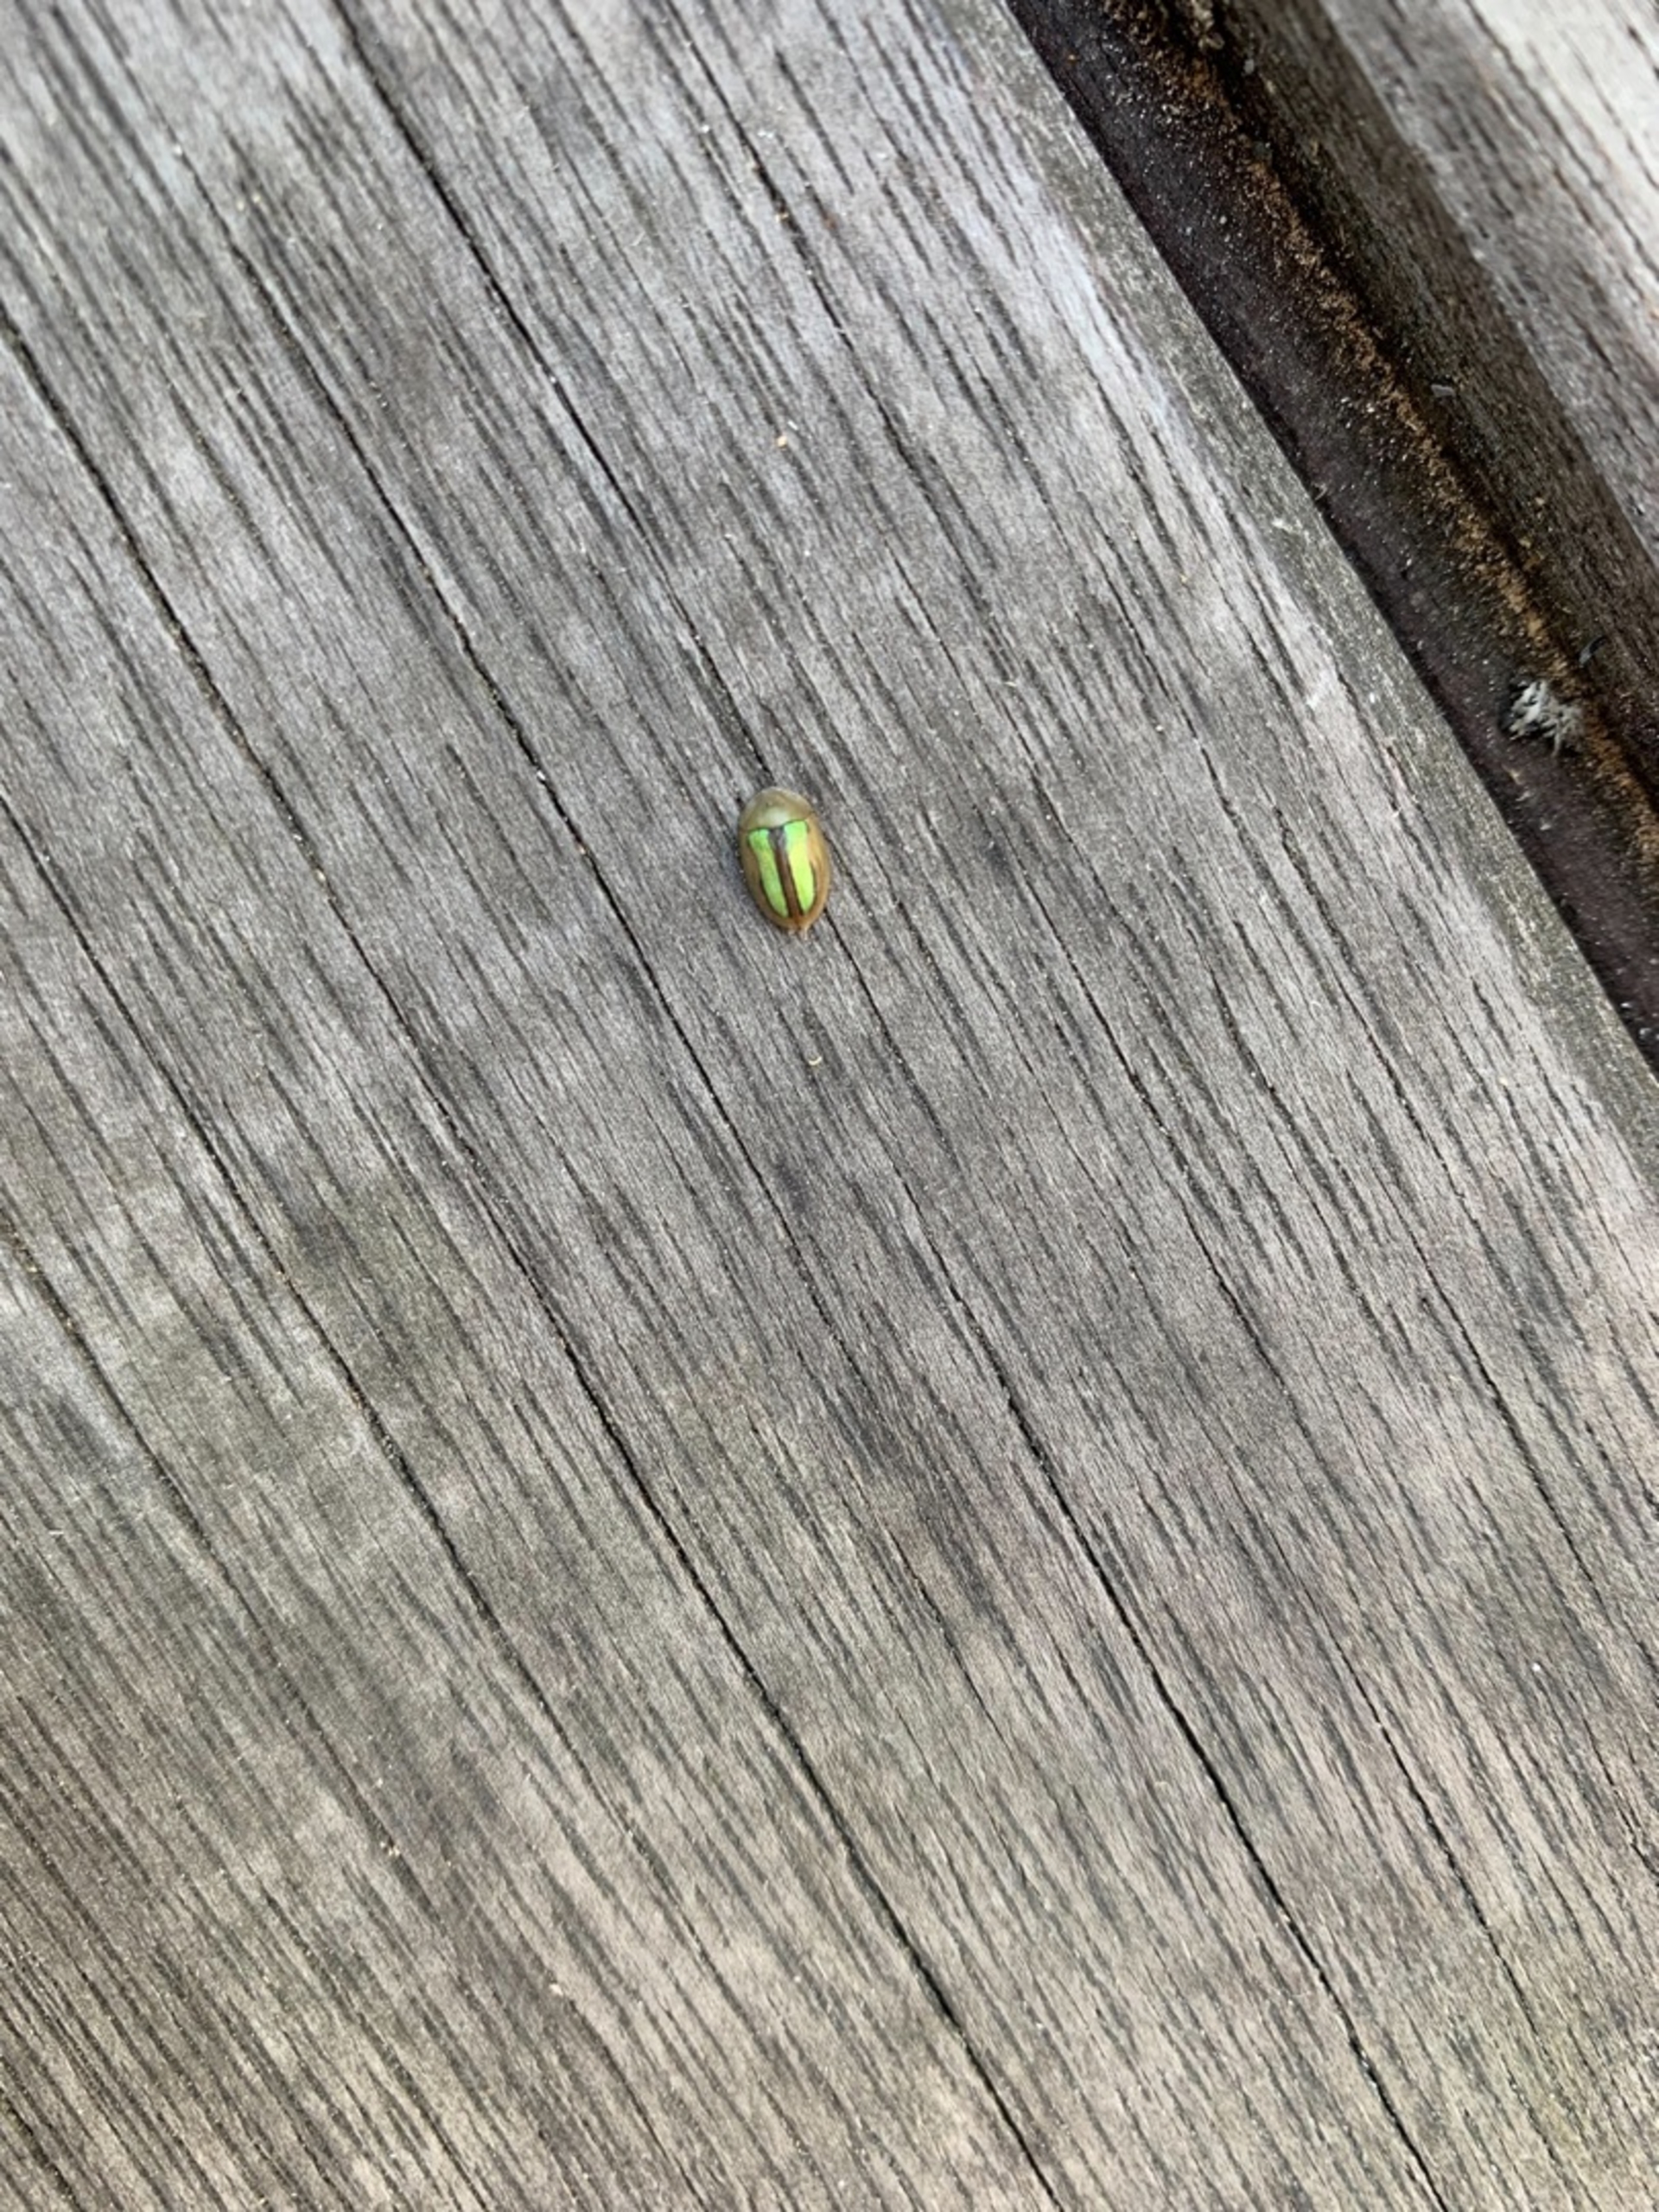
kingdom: Animalia
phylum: Arthropoda
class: Insecta
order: Coleoptera
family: Chrysomelidae
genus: Cassida
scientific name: Cassida vittata
